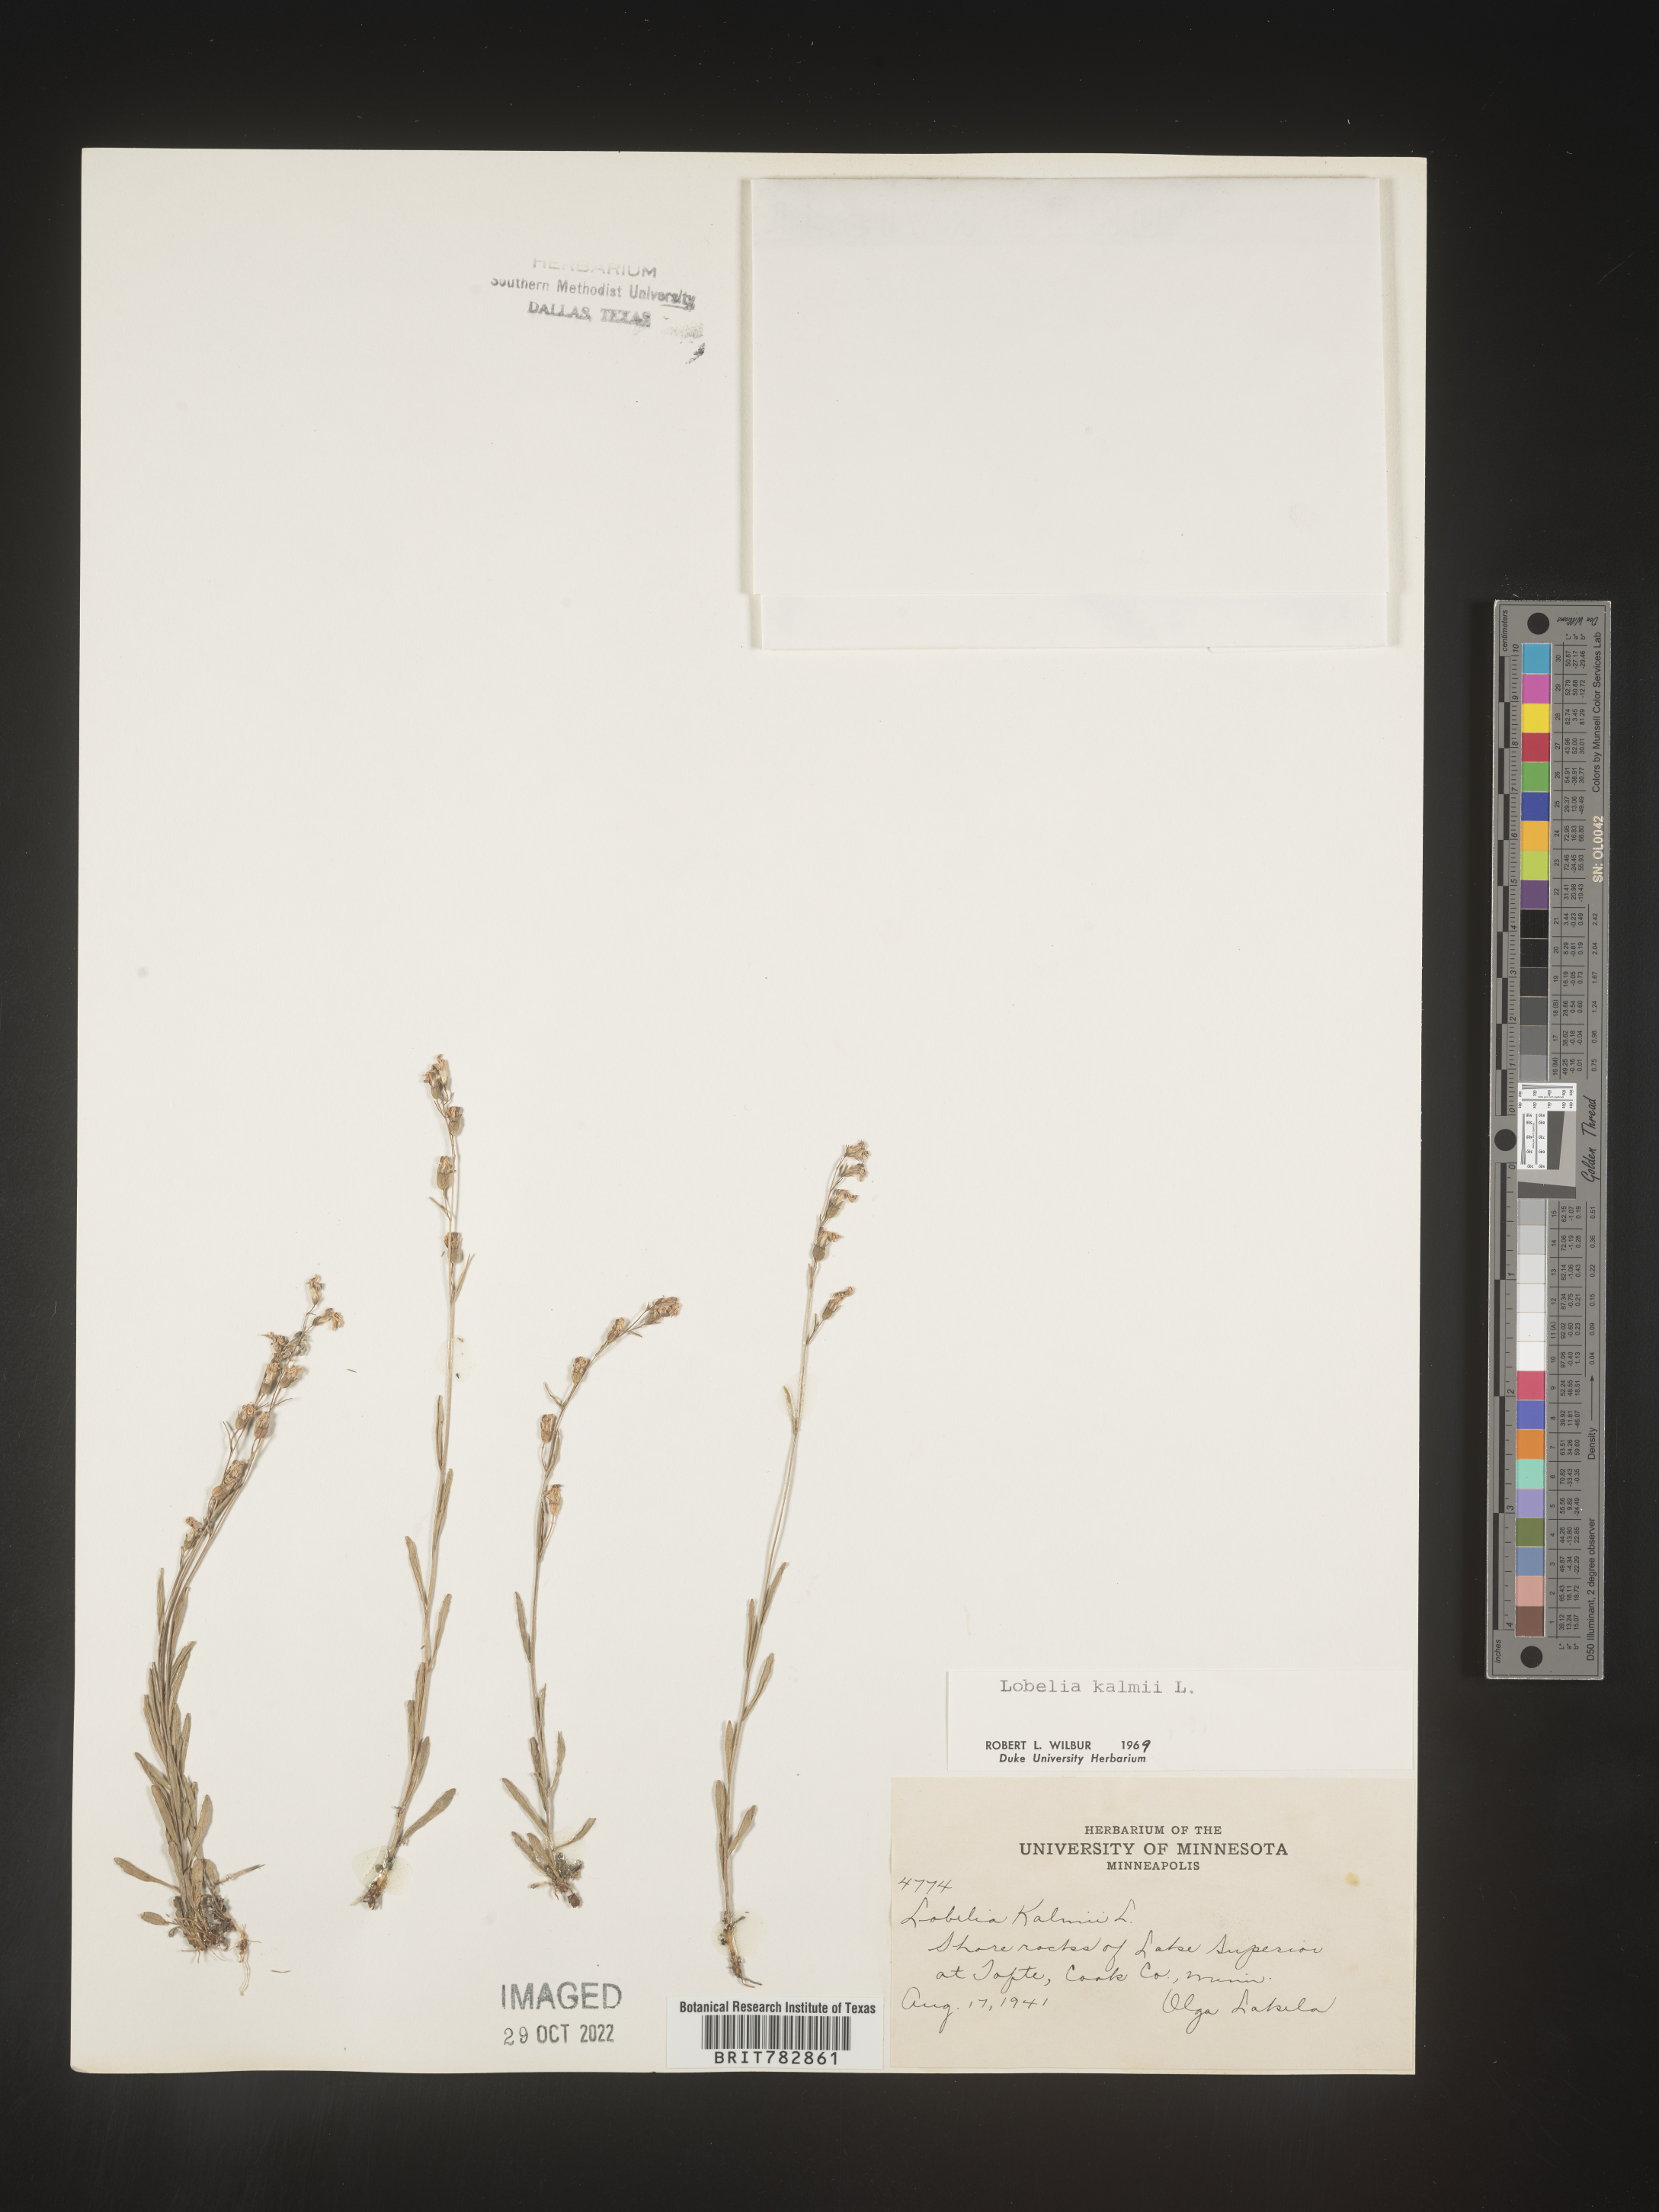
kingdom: Plantae
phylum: Tracheophyta
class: Magnoliopsida
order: Asterales
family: Campanulaceae
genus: Lobelia
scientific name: Lobelia
